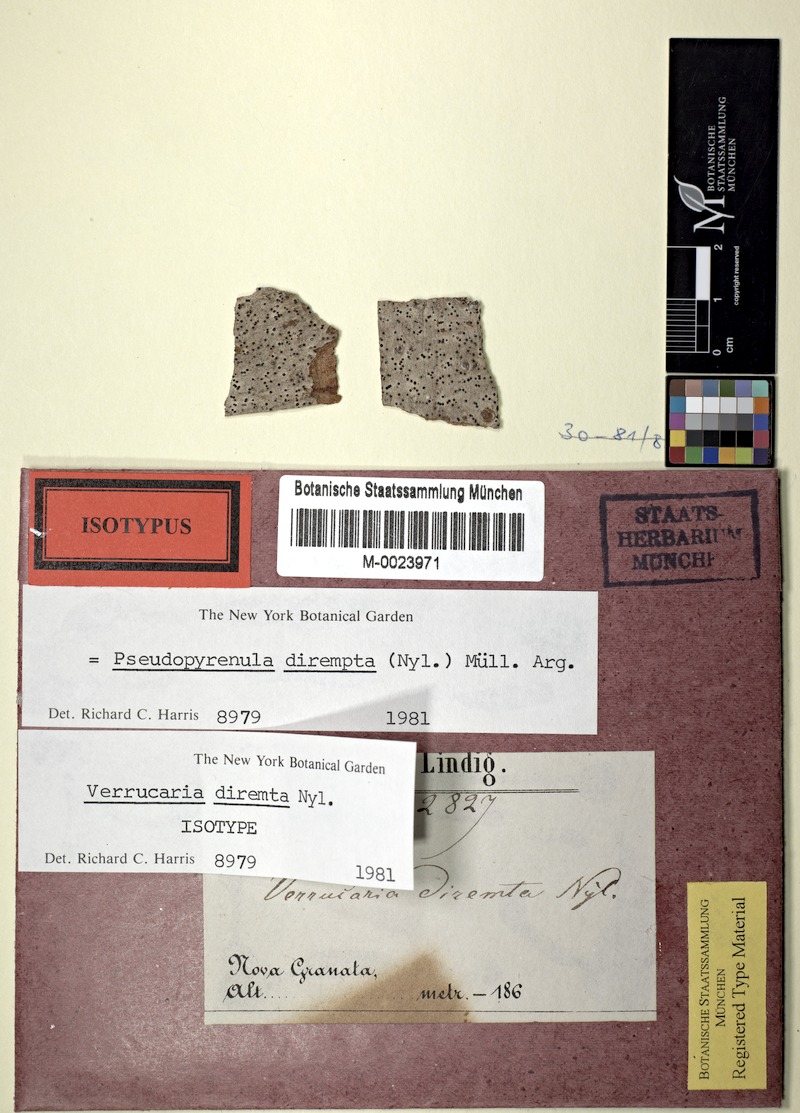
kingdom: Fungi
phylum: Ascomycota
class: Dothideomycetes
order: Trypetheliales
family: Trypetheliaceae
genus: Pseudopyrenula
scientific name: Pseudopyrenula
